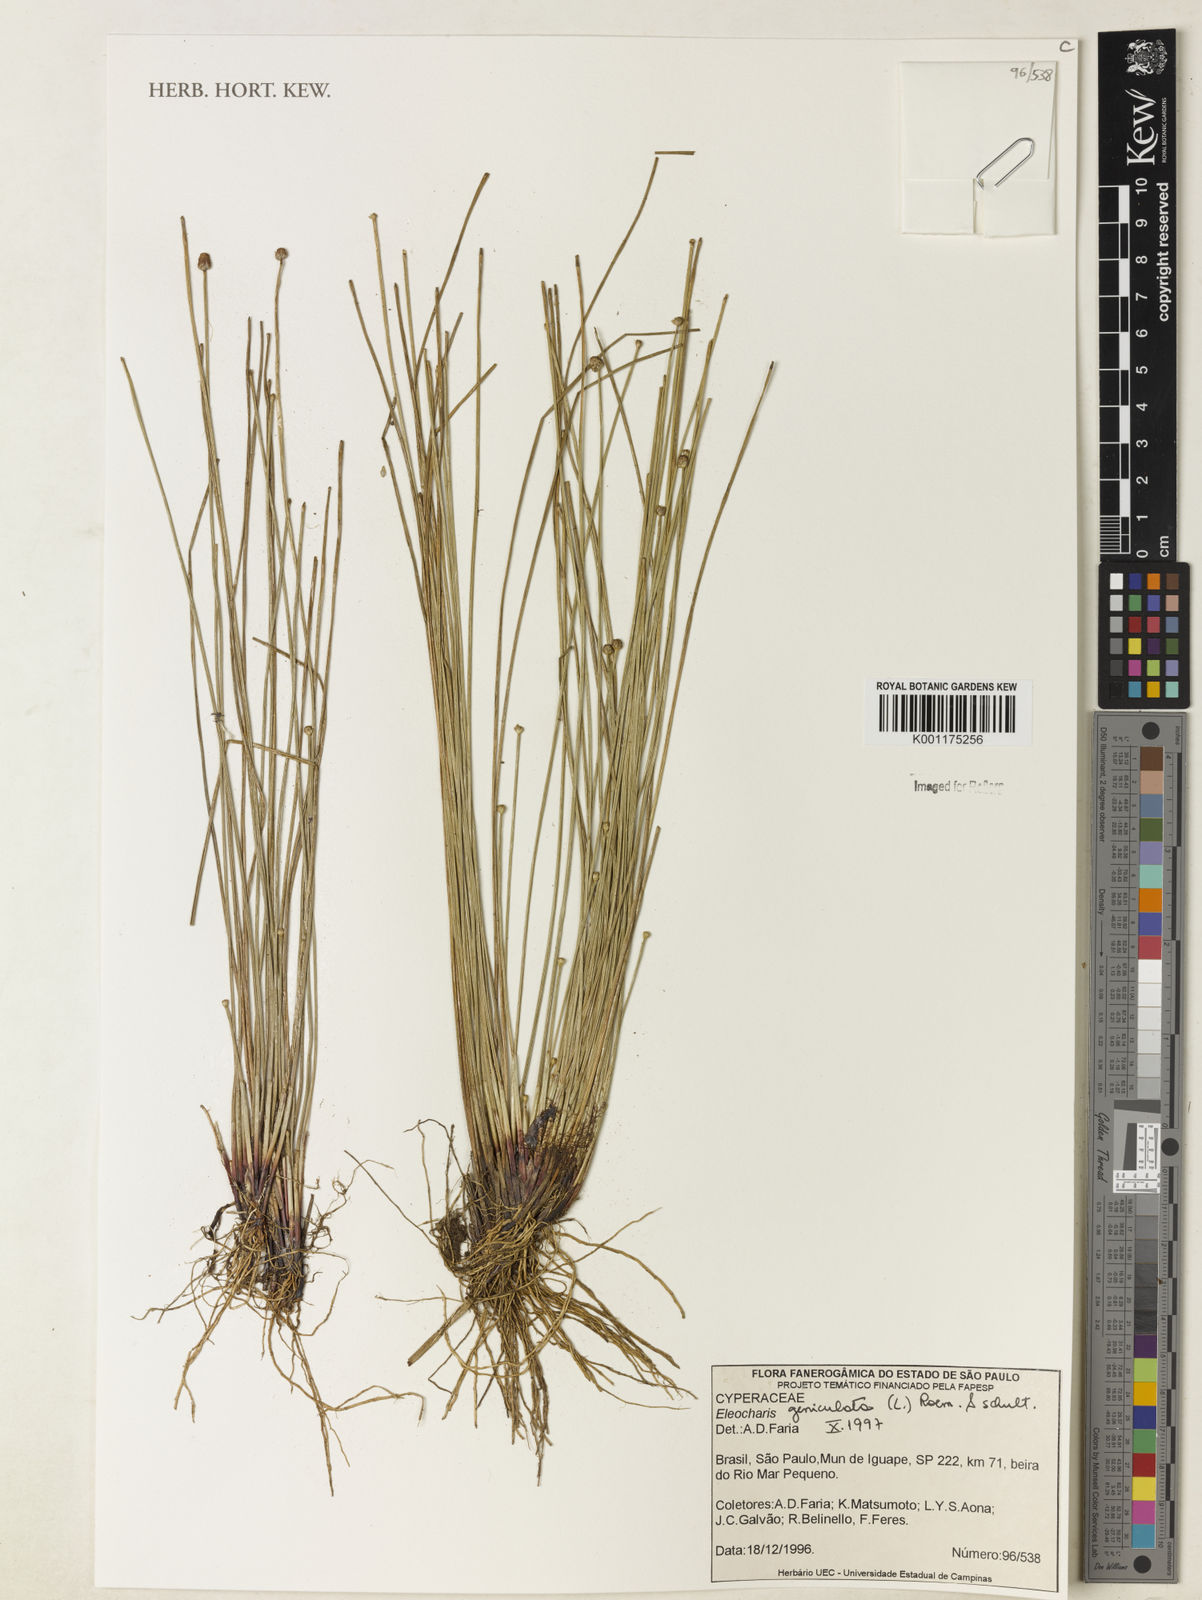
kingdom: Plantae
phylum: Tracheophyta
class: Liliopsida
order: Poales
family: Cyperaceae
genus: Eleocharis
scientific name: Eleocharis geniculata
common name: Canada spikesedge
